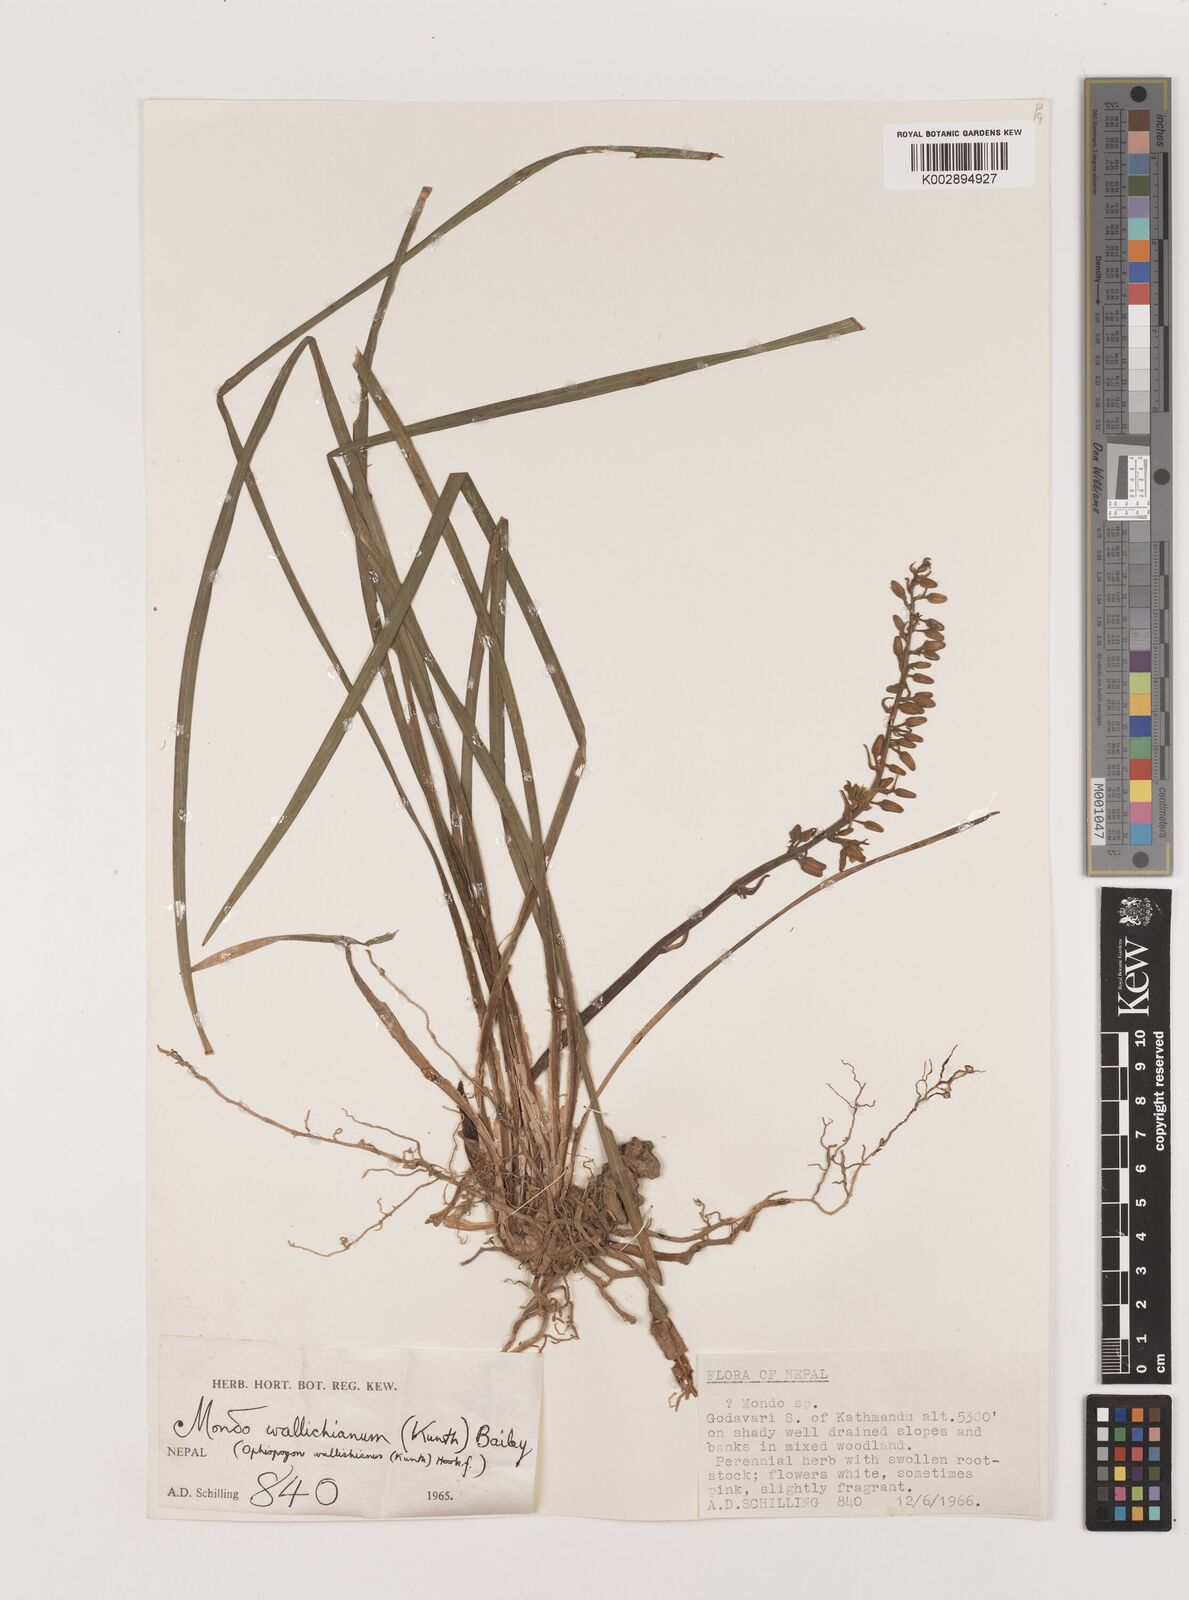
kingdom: Plantae
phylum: Tracheophyta
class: Liliopsida
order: Asparagales
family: Asparagaceae
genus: Ophiopogon
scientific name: Ophiopogon intermedius
